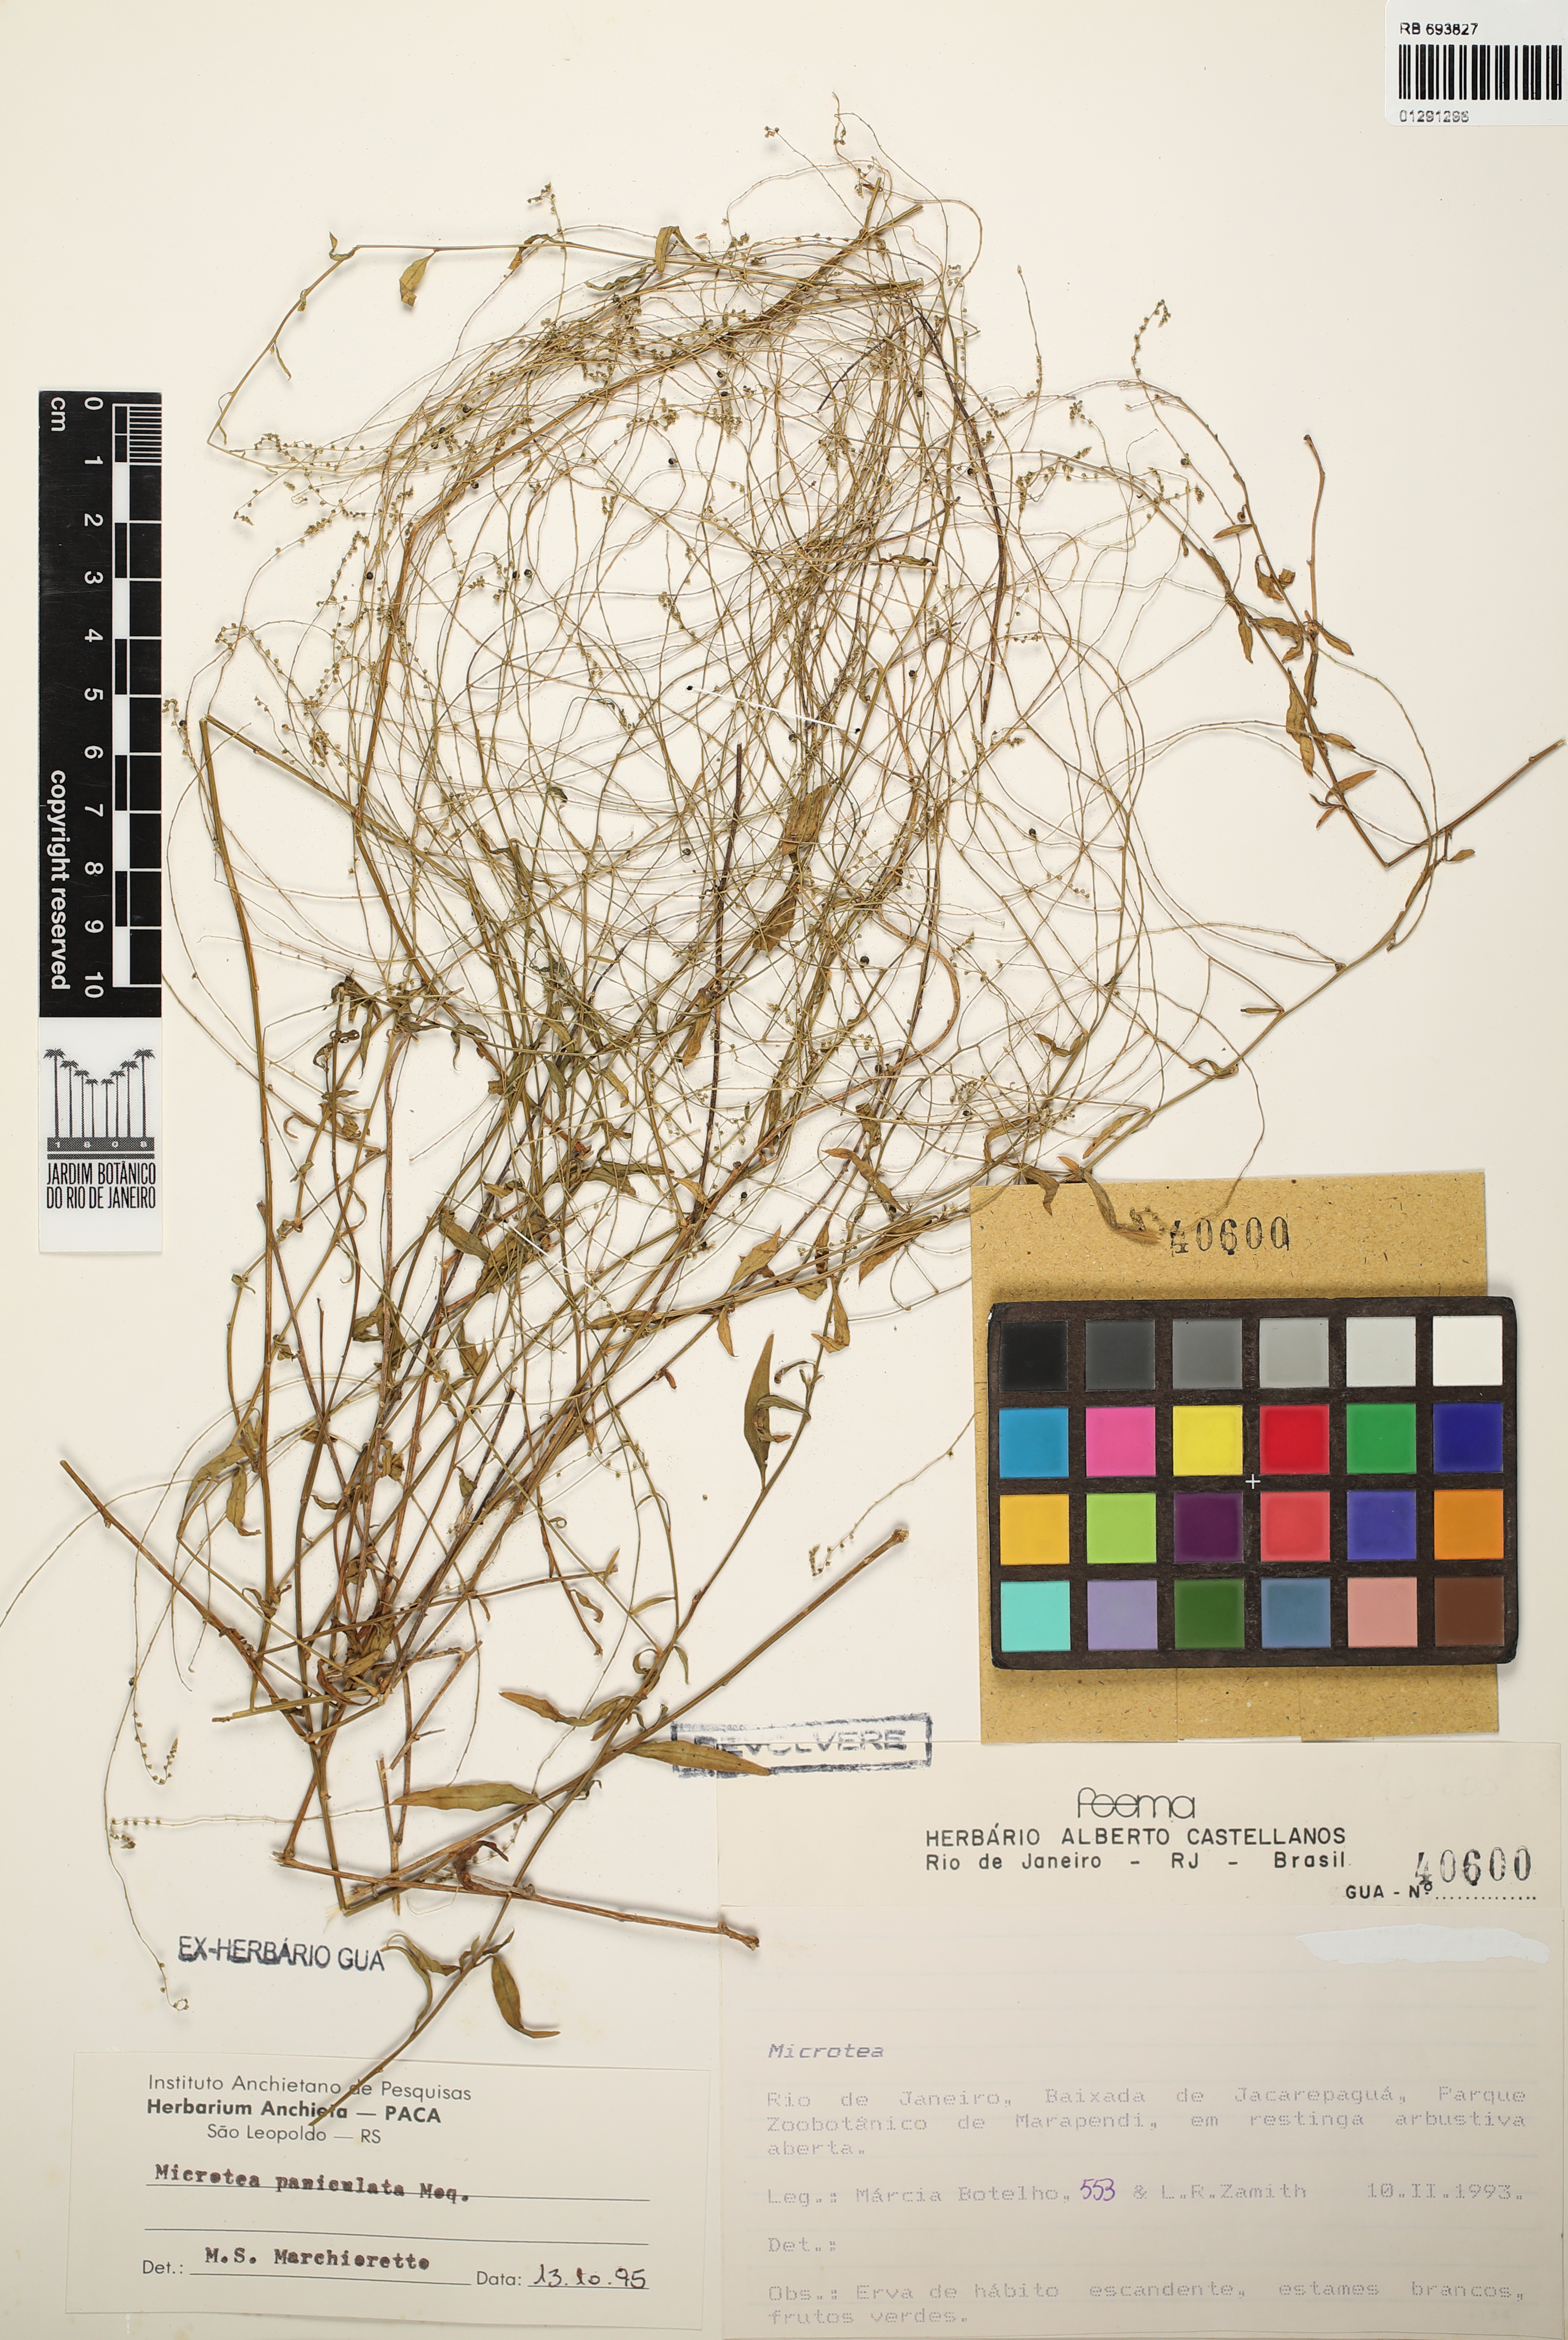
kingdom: Plantae
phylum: Tracheophyta
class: Magnoliopsida
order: Caryophyllales
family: Microteaceae
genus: Microtea
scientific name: Microtea paniculata
